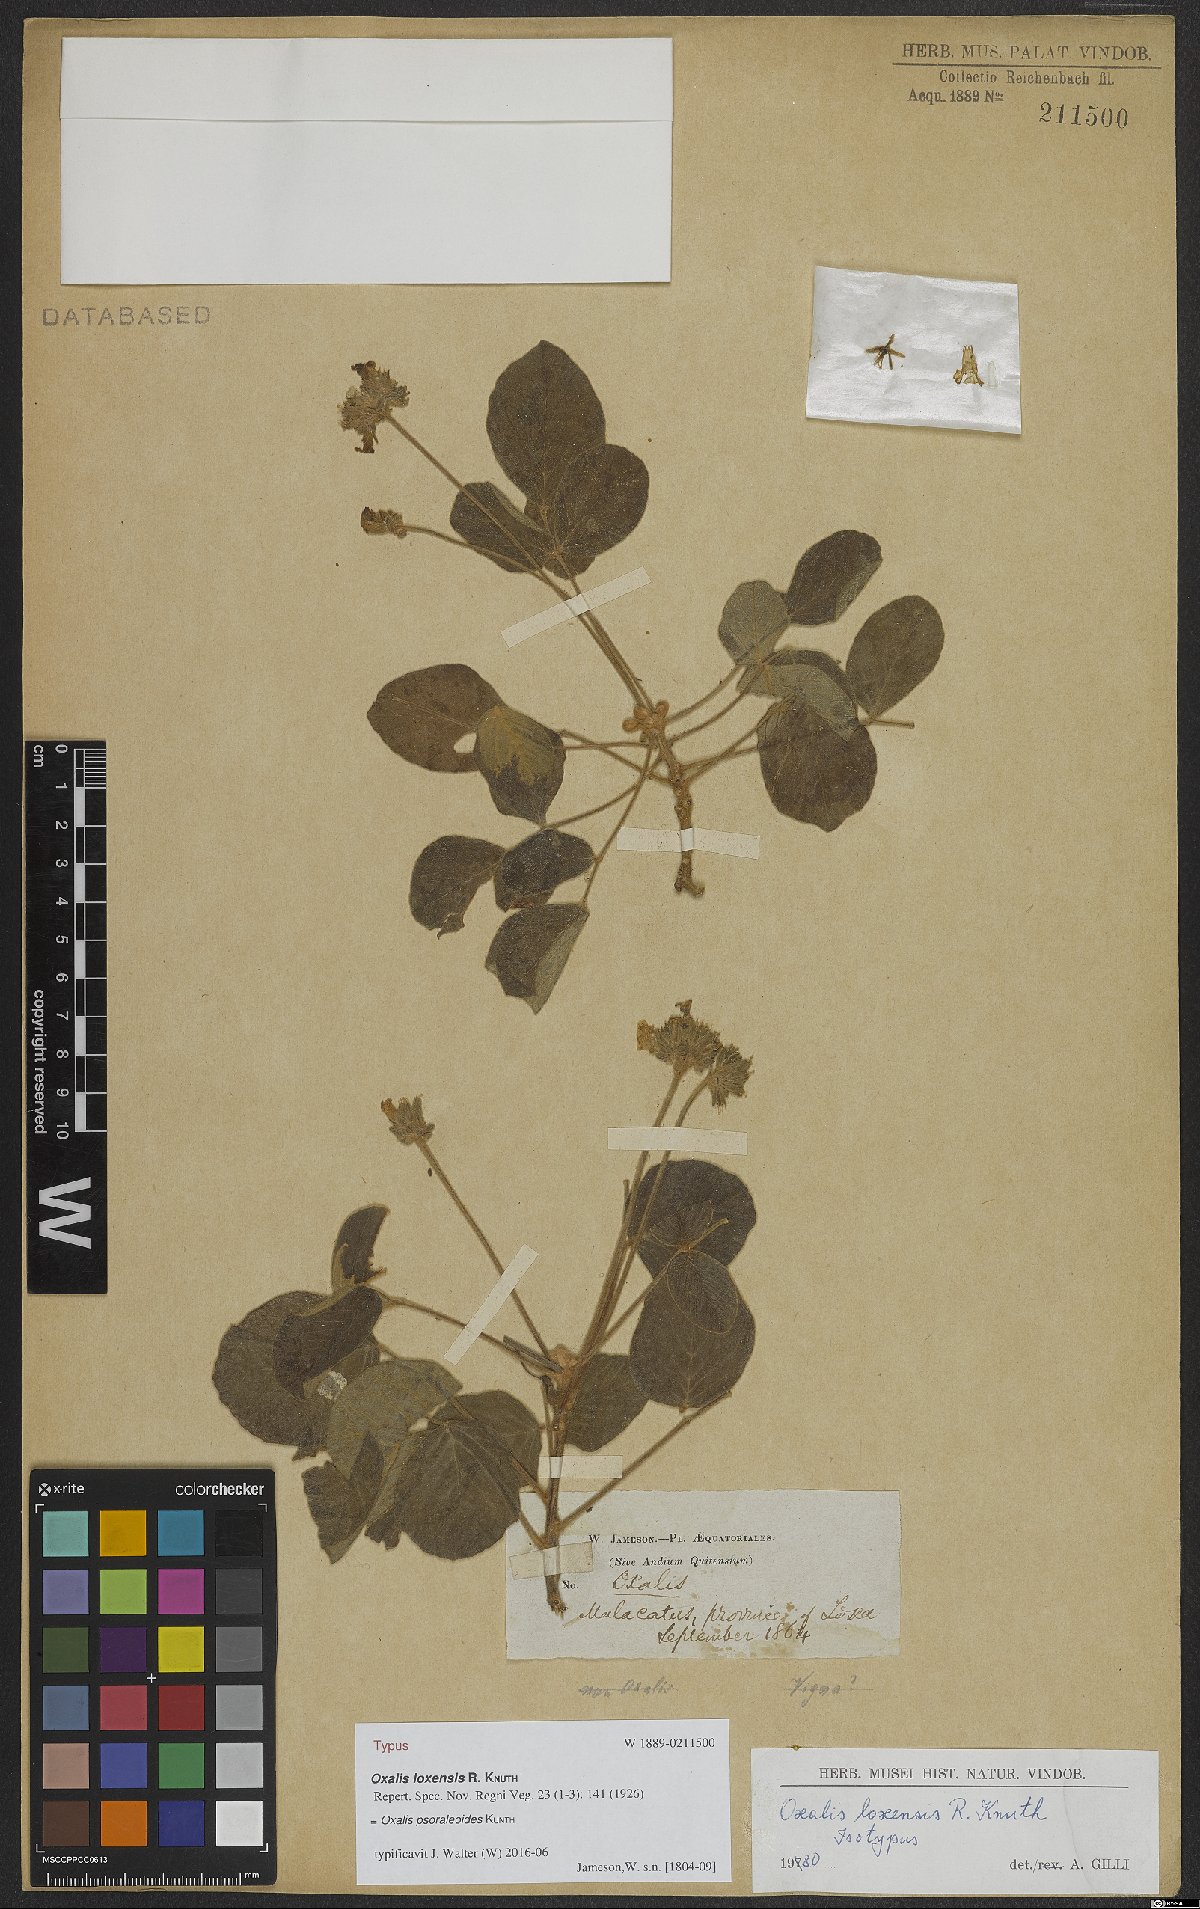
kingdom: Plantae
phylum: Tracheophyta
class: Magnoliopsida
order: Oxalidales
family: Oxalidaceae
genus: Oxalis
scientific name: Oxalis psoraleoides
